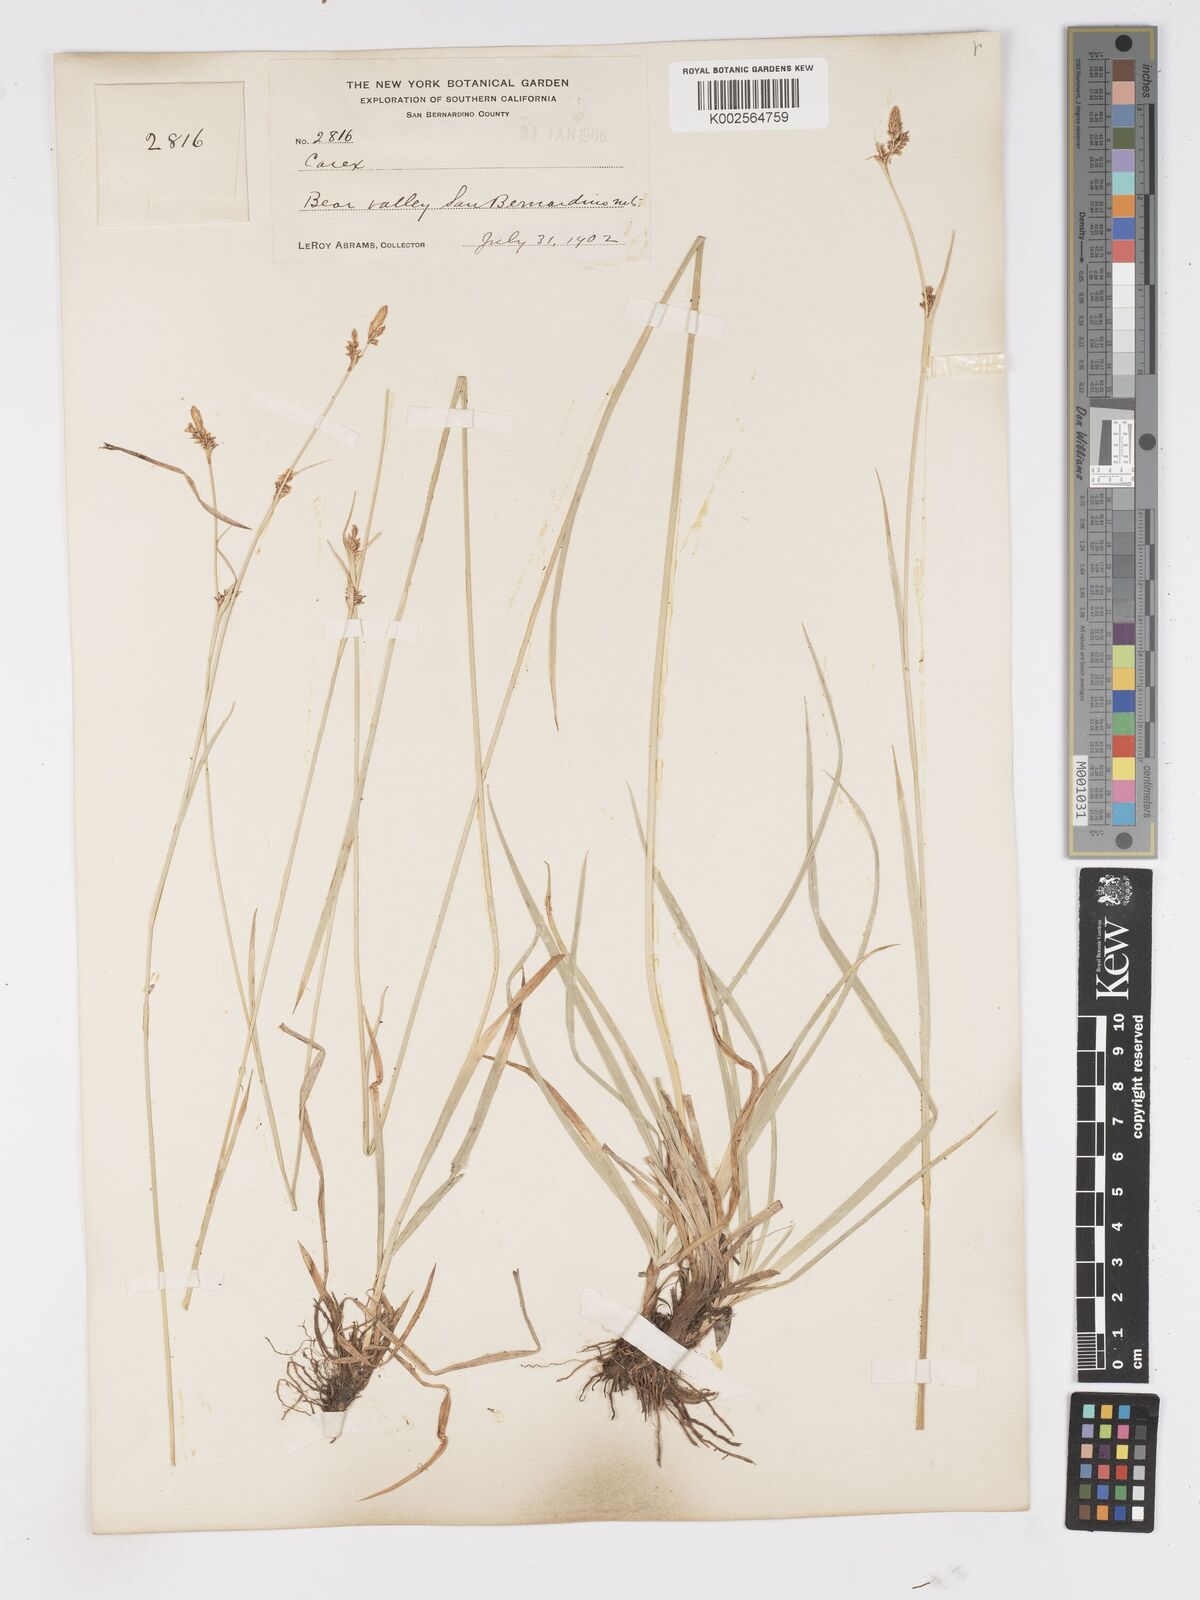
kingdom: Plantae
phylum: Tracheophyta
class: Liliopsida
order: Poales
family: Cyperaceae
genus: Carex
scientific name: Carex
